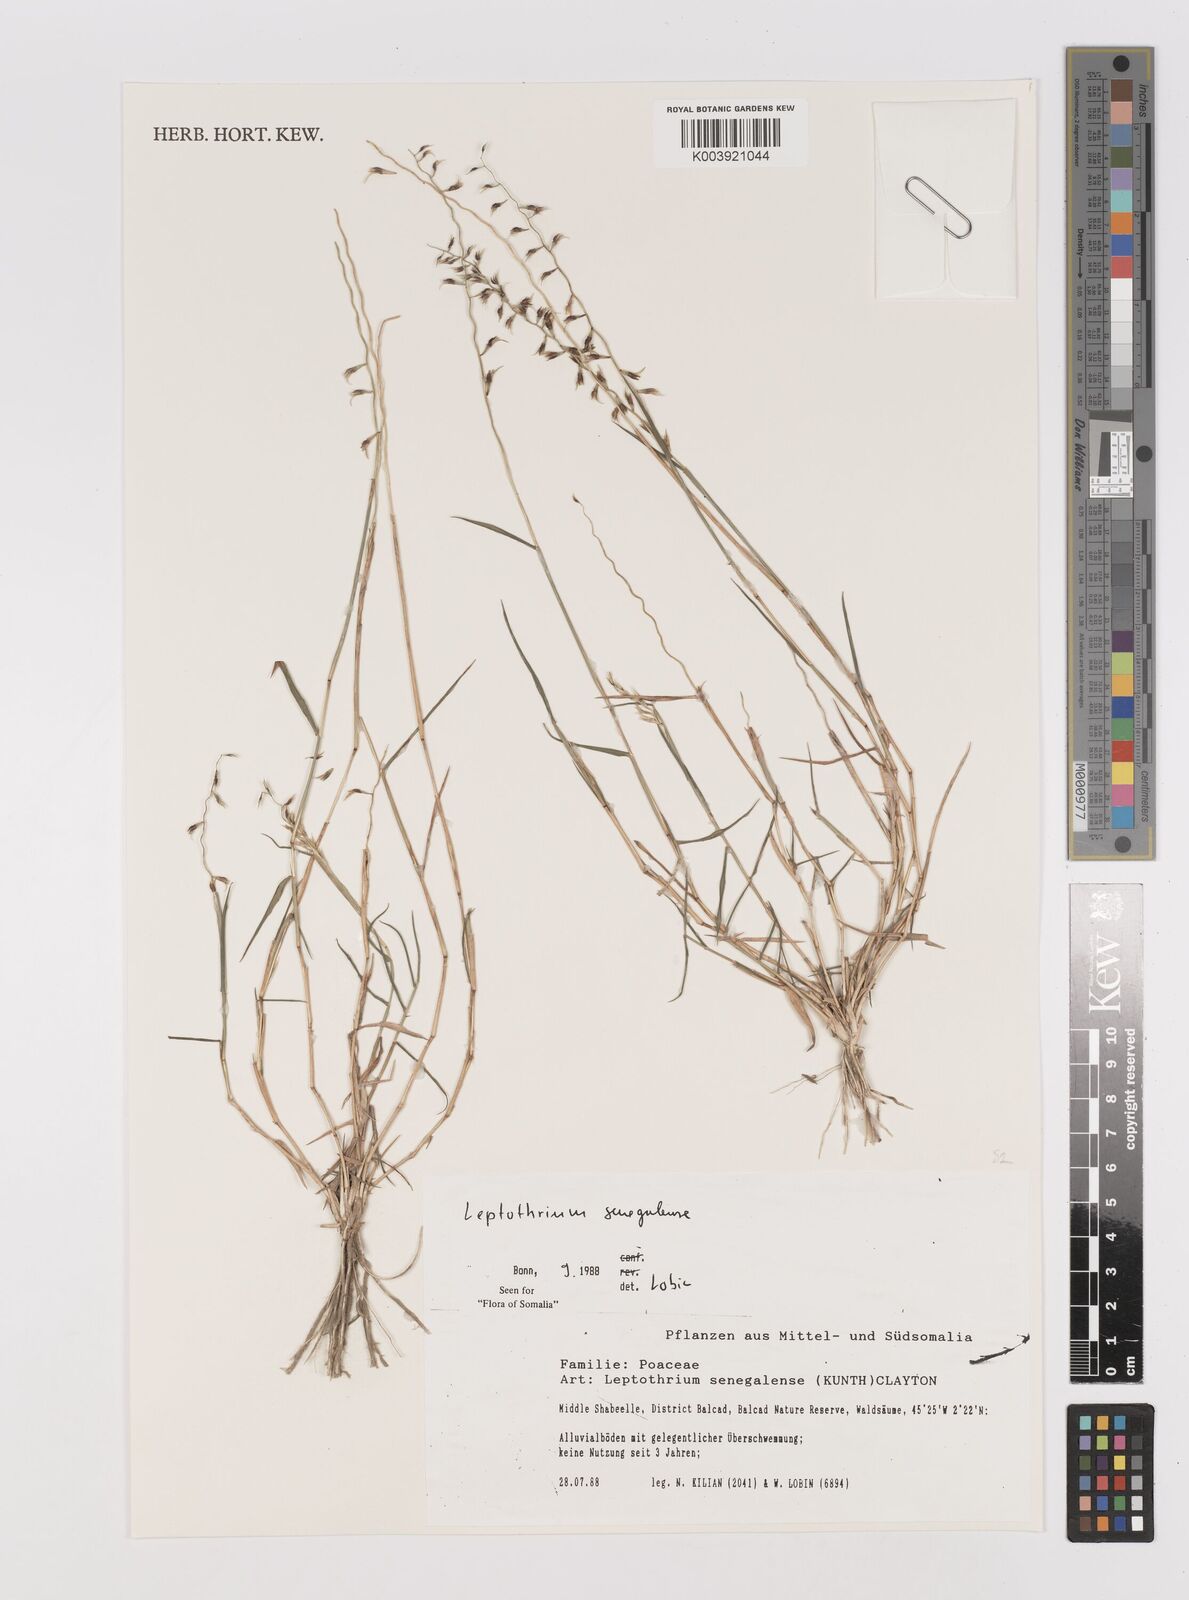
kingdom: Plantae
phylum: Tracheophyta
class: Liliopsida
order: Poales
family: Poaceae
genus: Leptothrium
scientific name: Leptothrium senegalense
